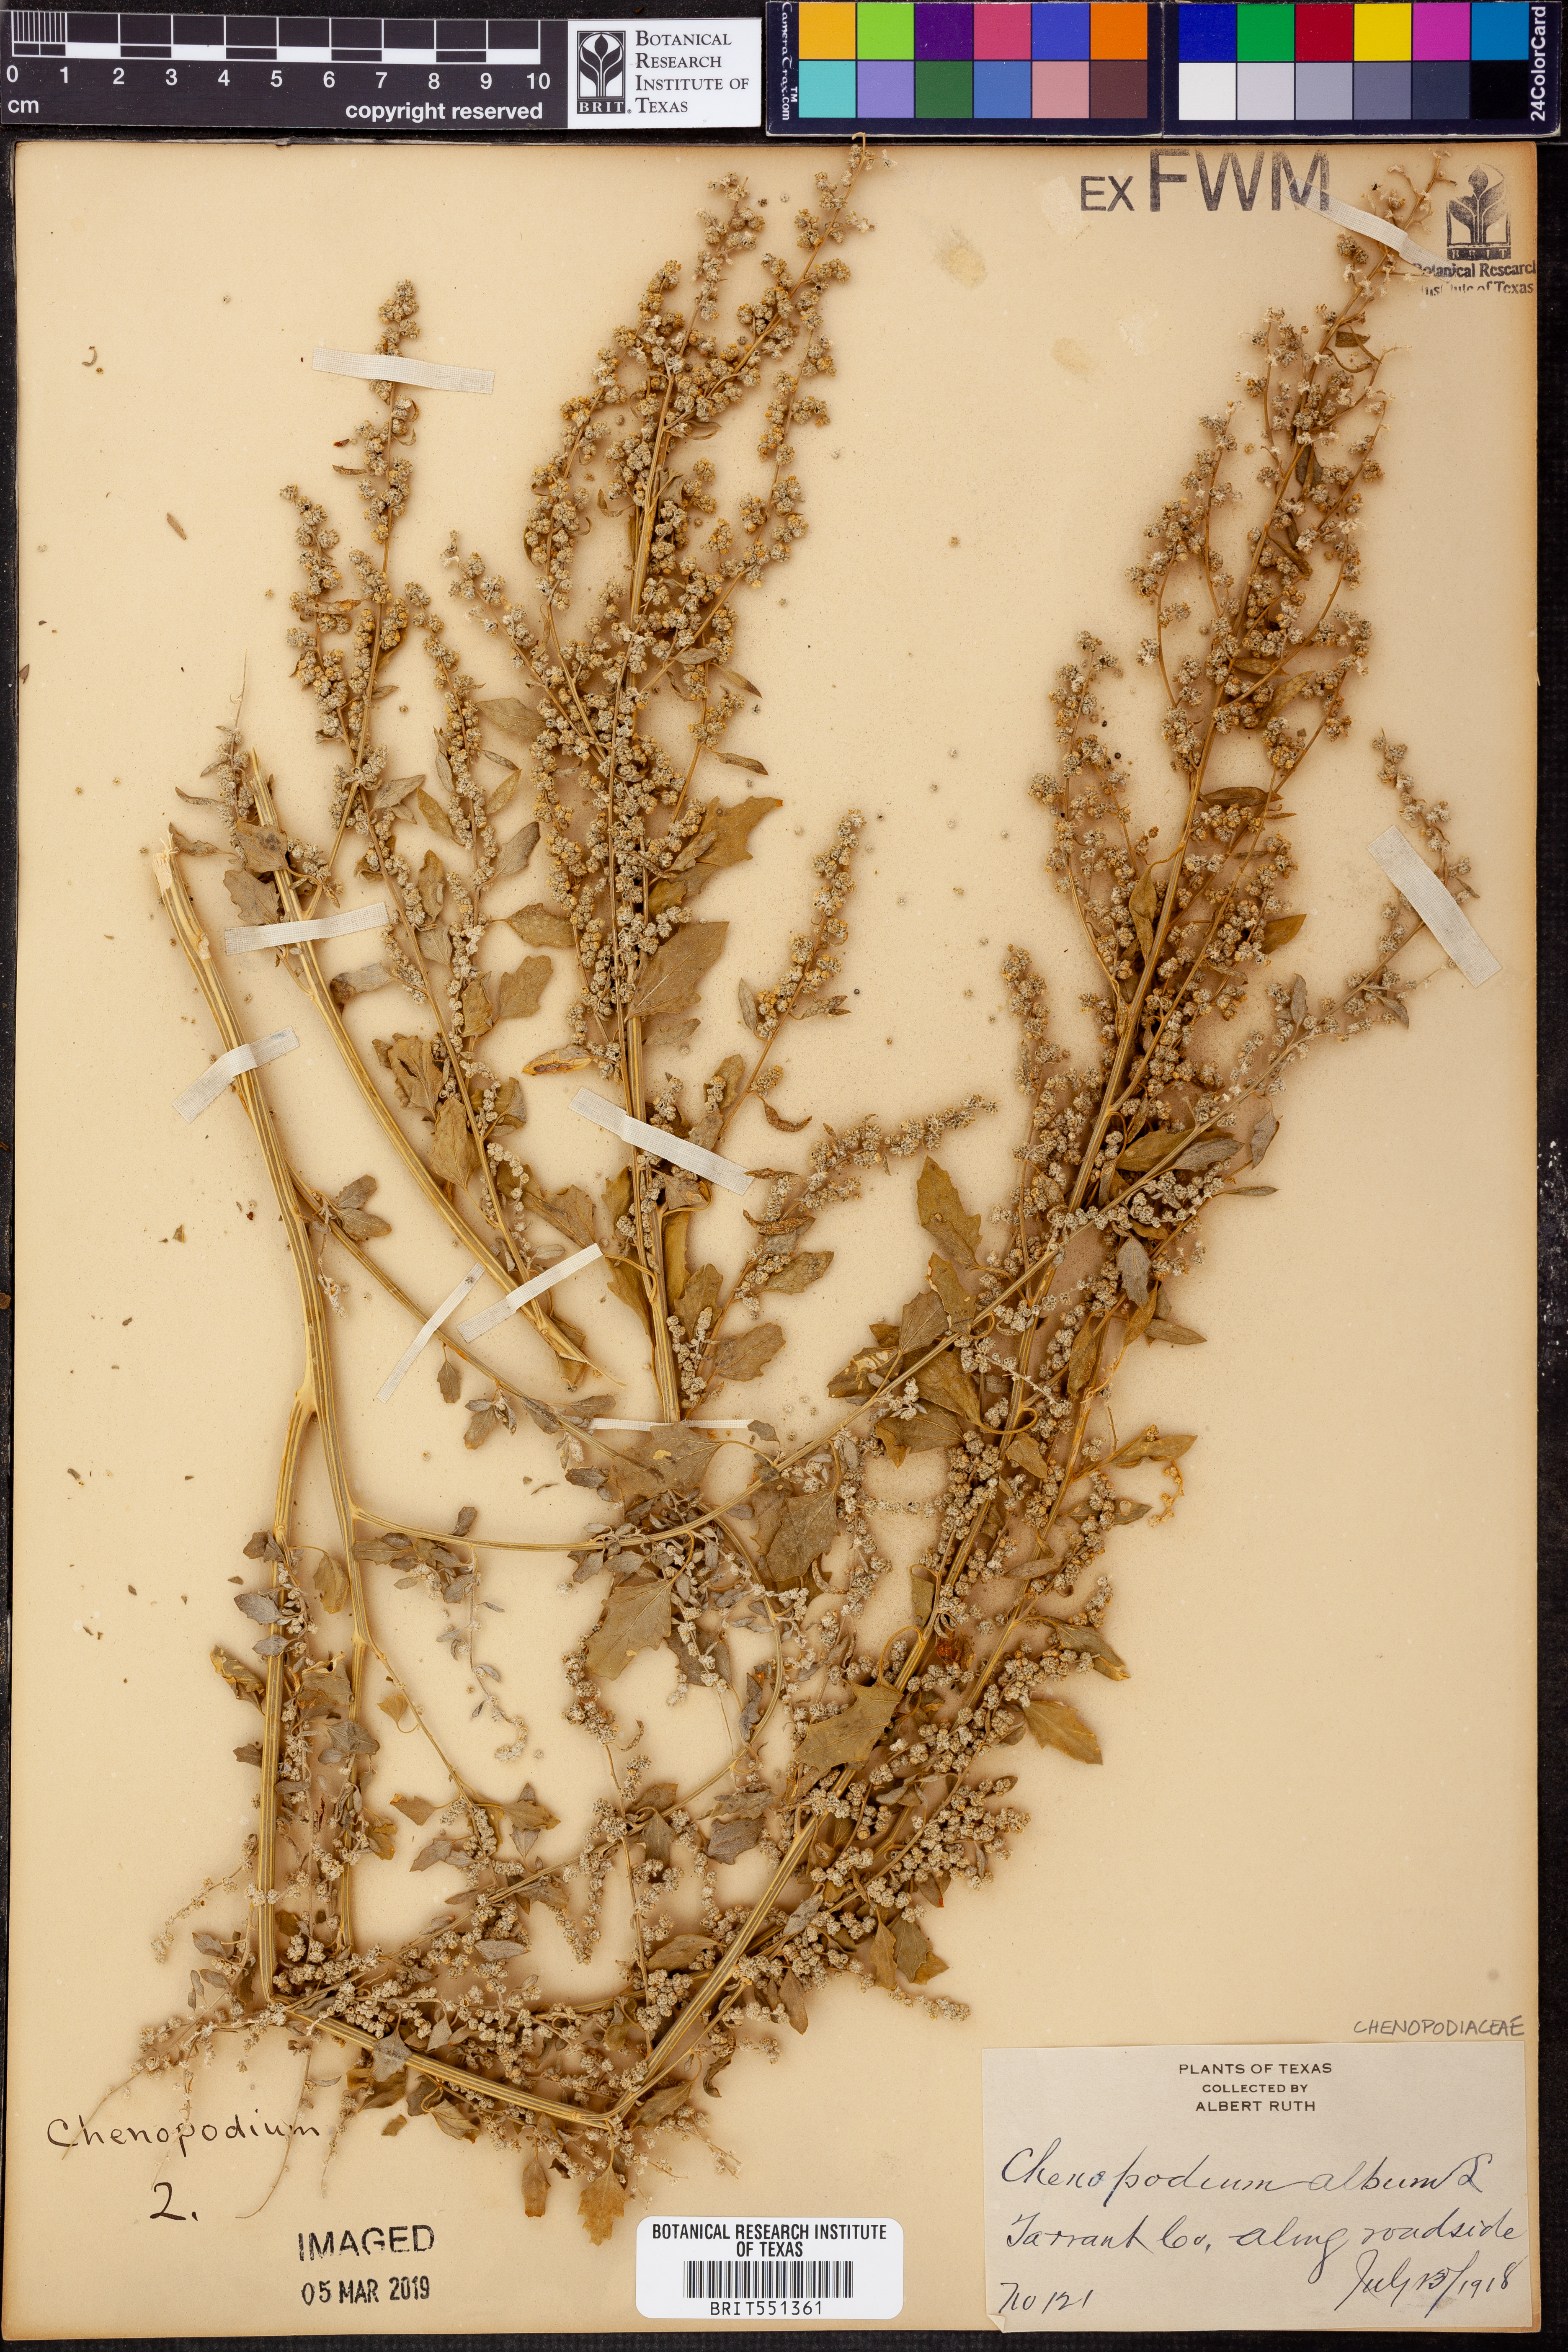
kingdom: Plantae
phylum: Tracheophyta
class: Magnoliopsida
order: Caryophyllales
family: Amaranthaceae
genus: Chenopodium
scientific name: Chenopodium album
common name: Fat-hen
